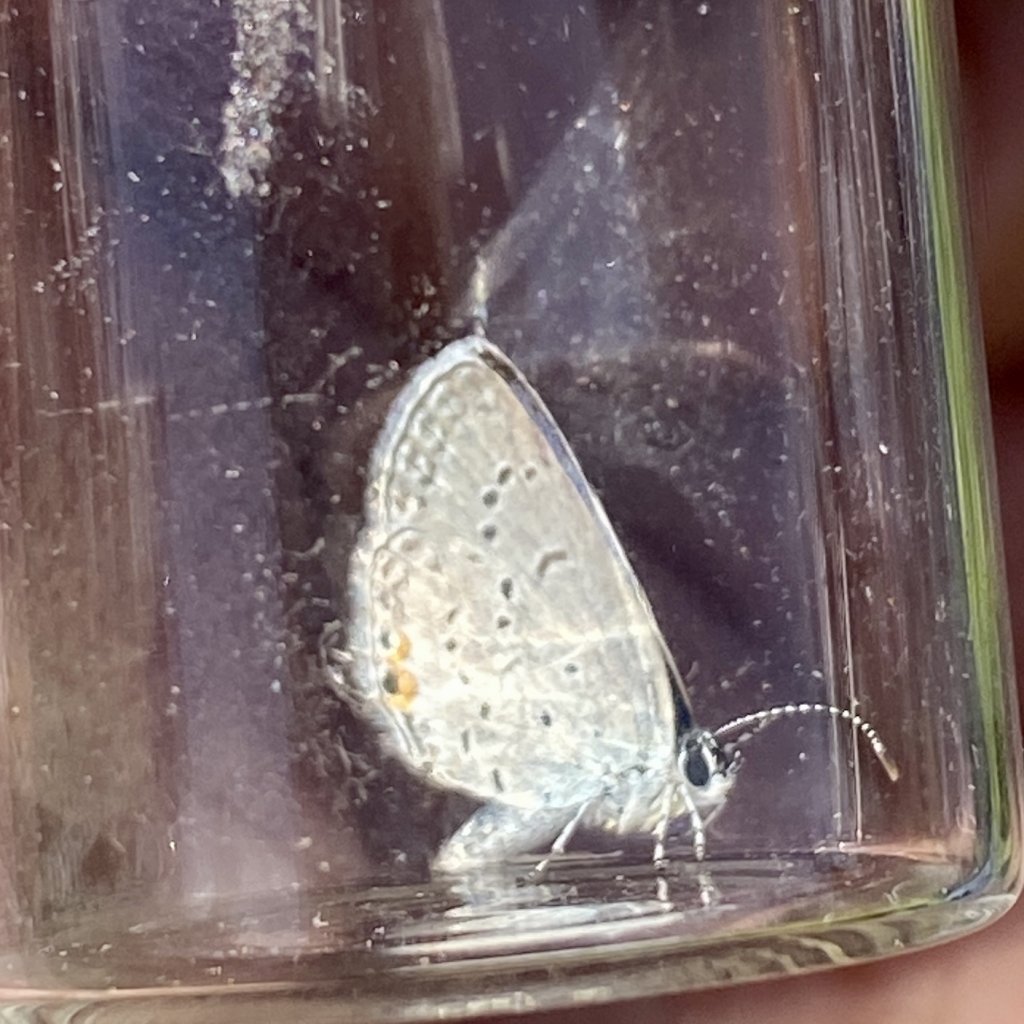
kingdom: Animalia
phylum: Arthropoda
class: Insecta
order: Lepidoptera
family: Lycaenidae
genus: Elkalyce
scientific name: Elkalyce comyntas
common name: Eastern Tailed-Blue
